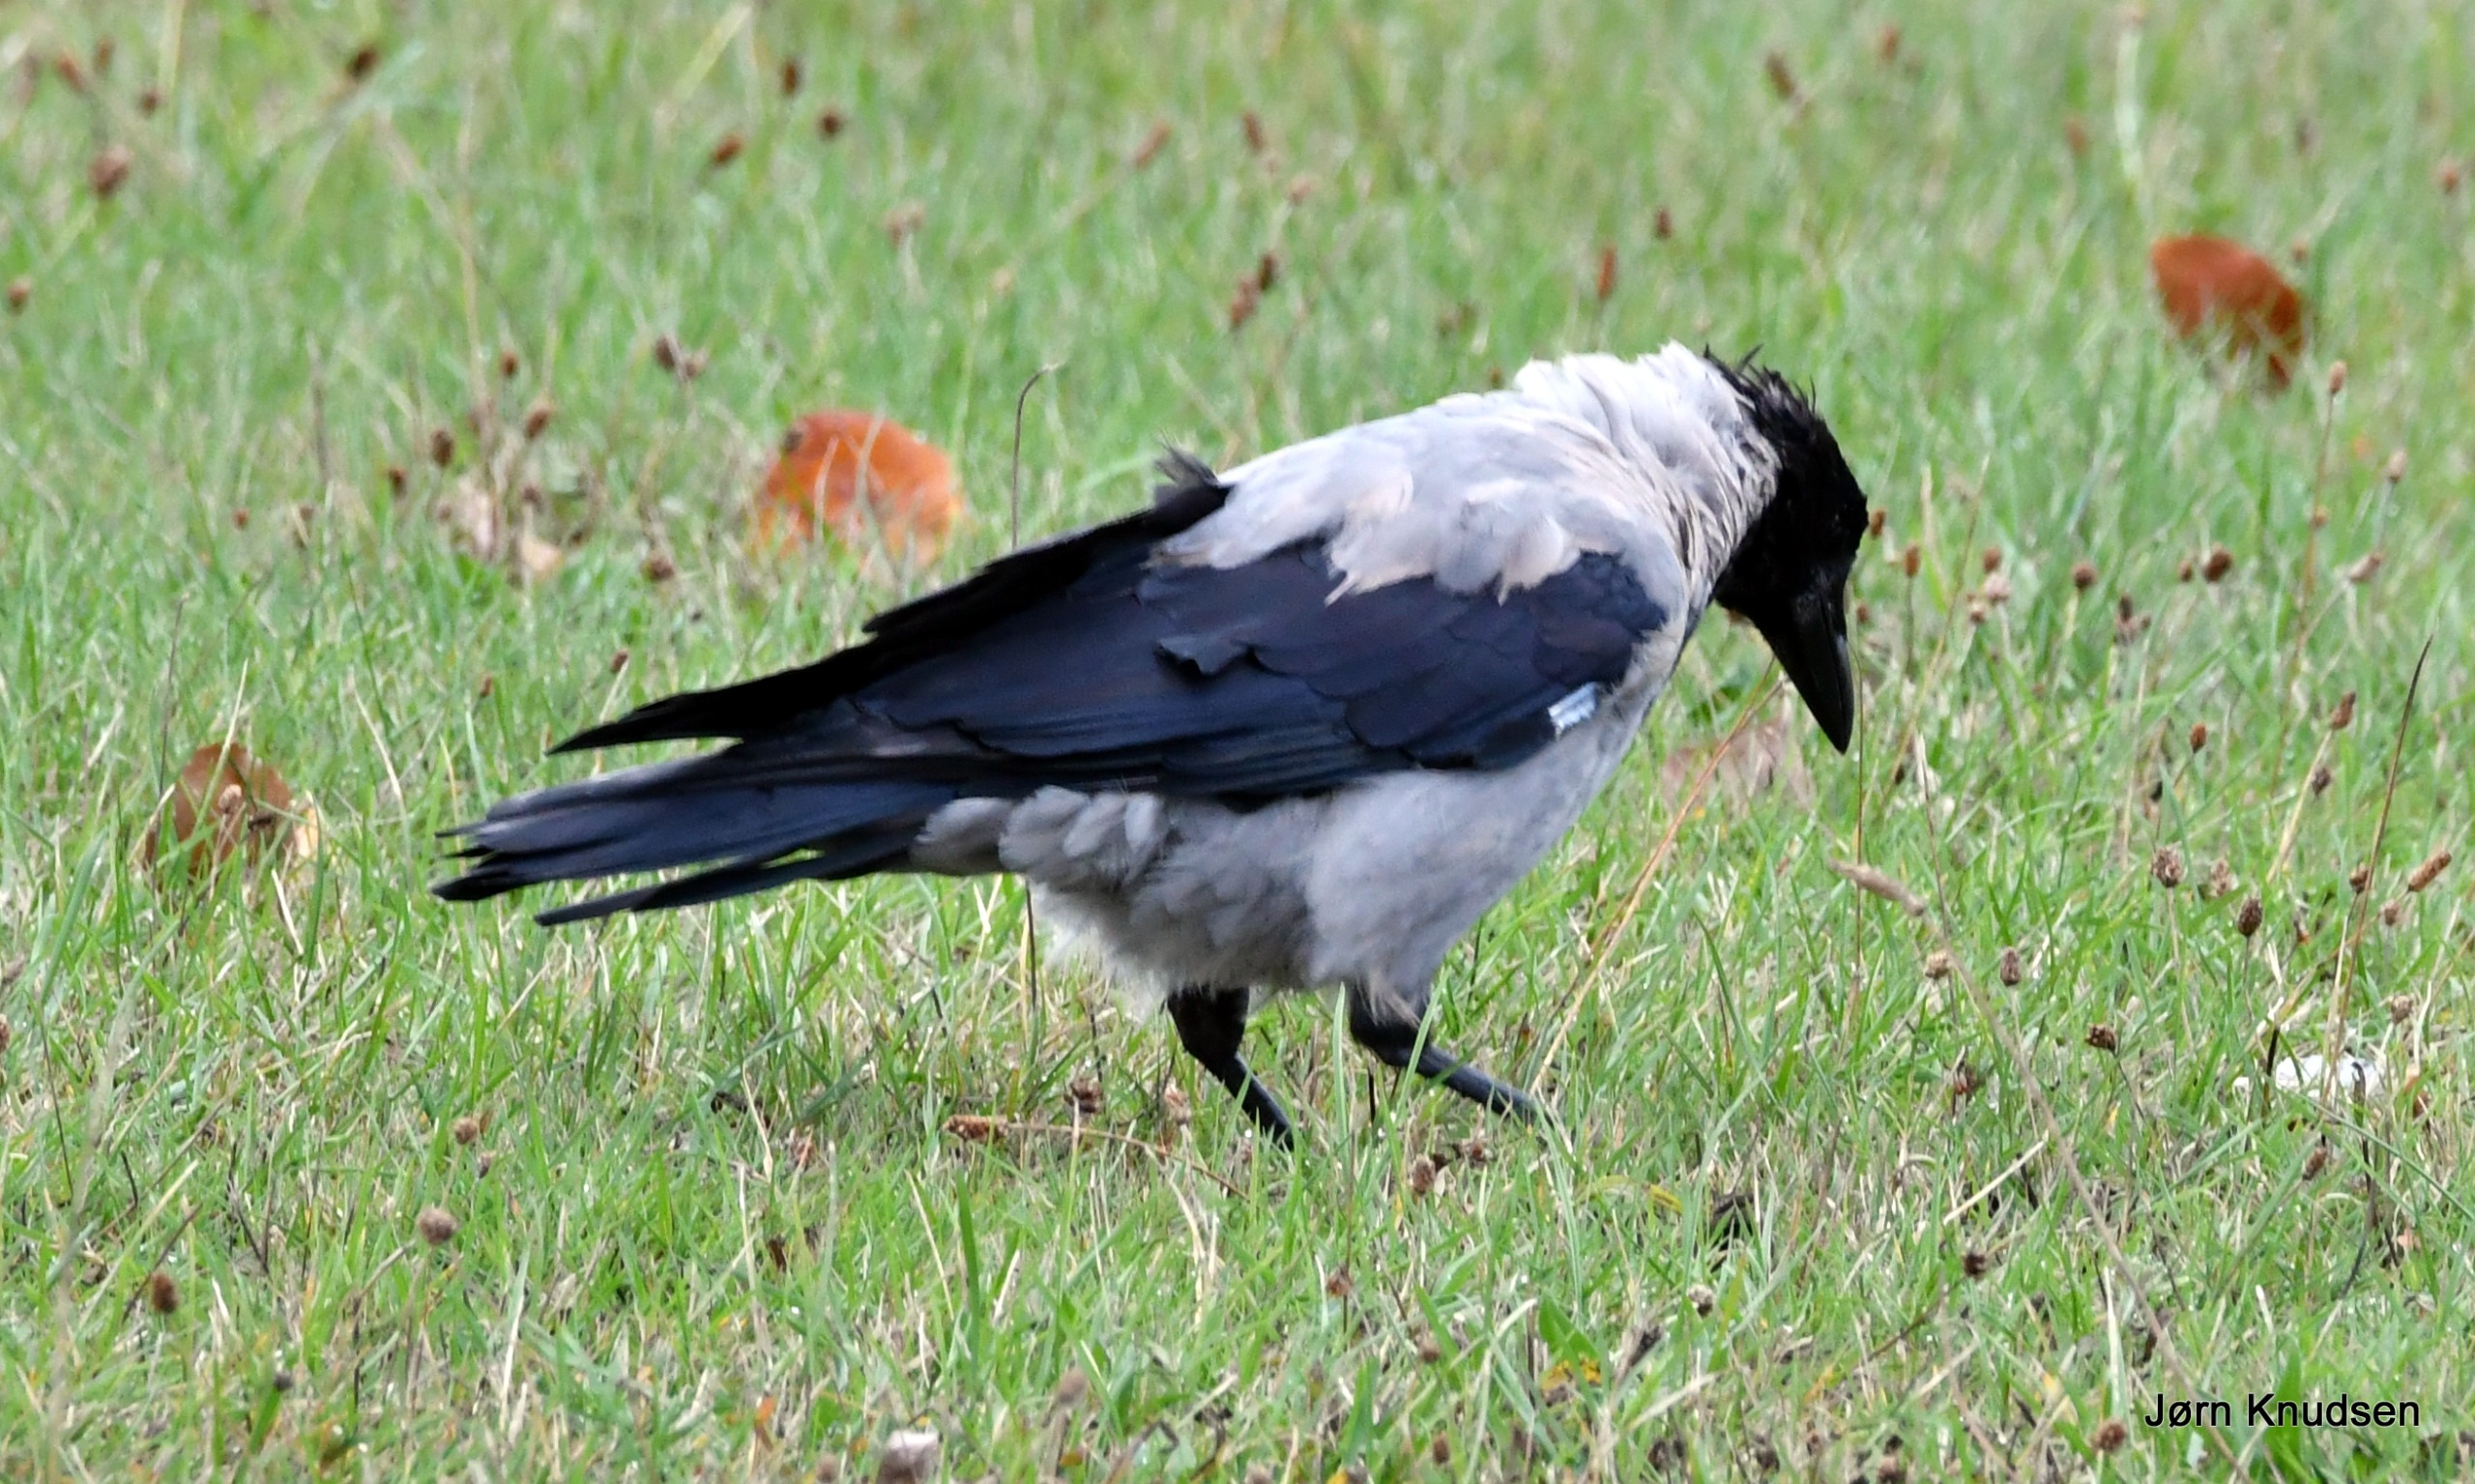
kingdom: Animalia
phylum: Chordata
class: Aves
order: Passeriformes
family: Corvidae
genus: Corvus
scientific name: Corvus cornix
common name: Gråkrage
